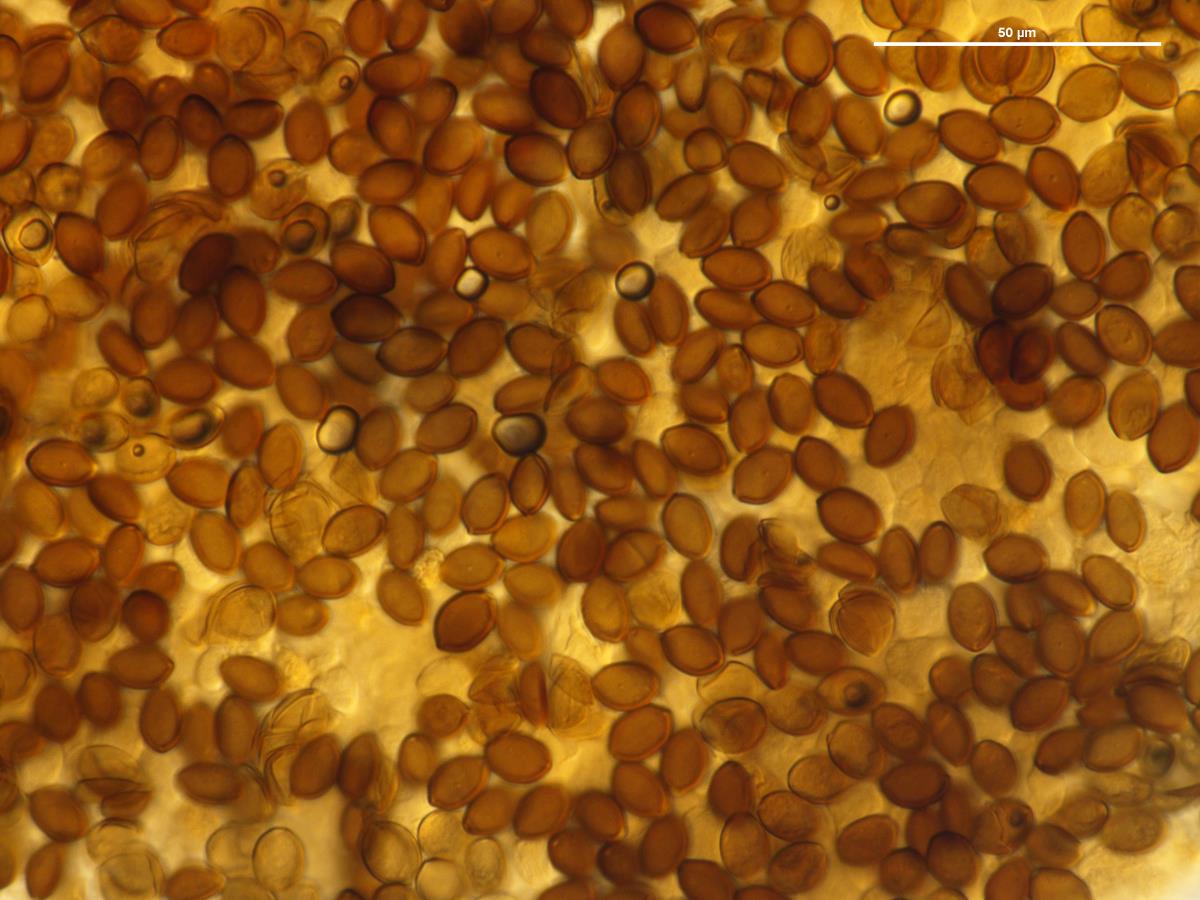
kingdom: Fungi
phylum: Basidiomycota
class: Agaricomycetes
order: Agaricales
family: Strophariaceae
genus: Deconica
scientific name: Deconica coprophila
